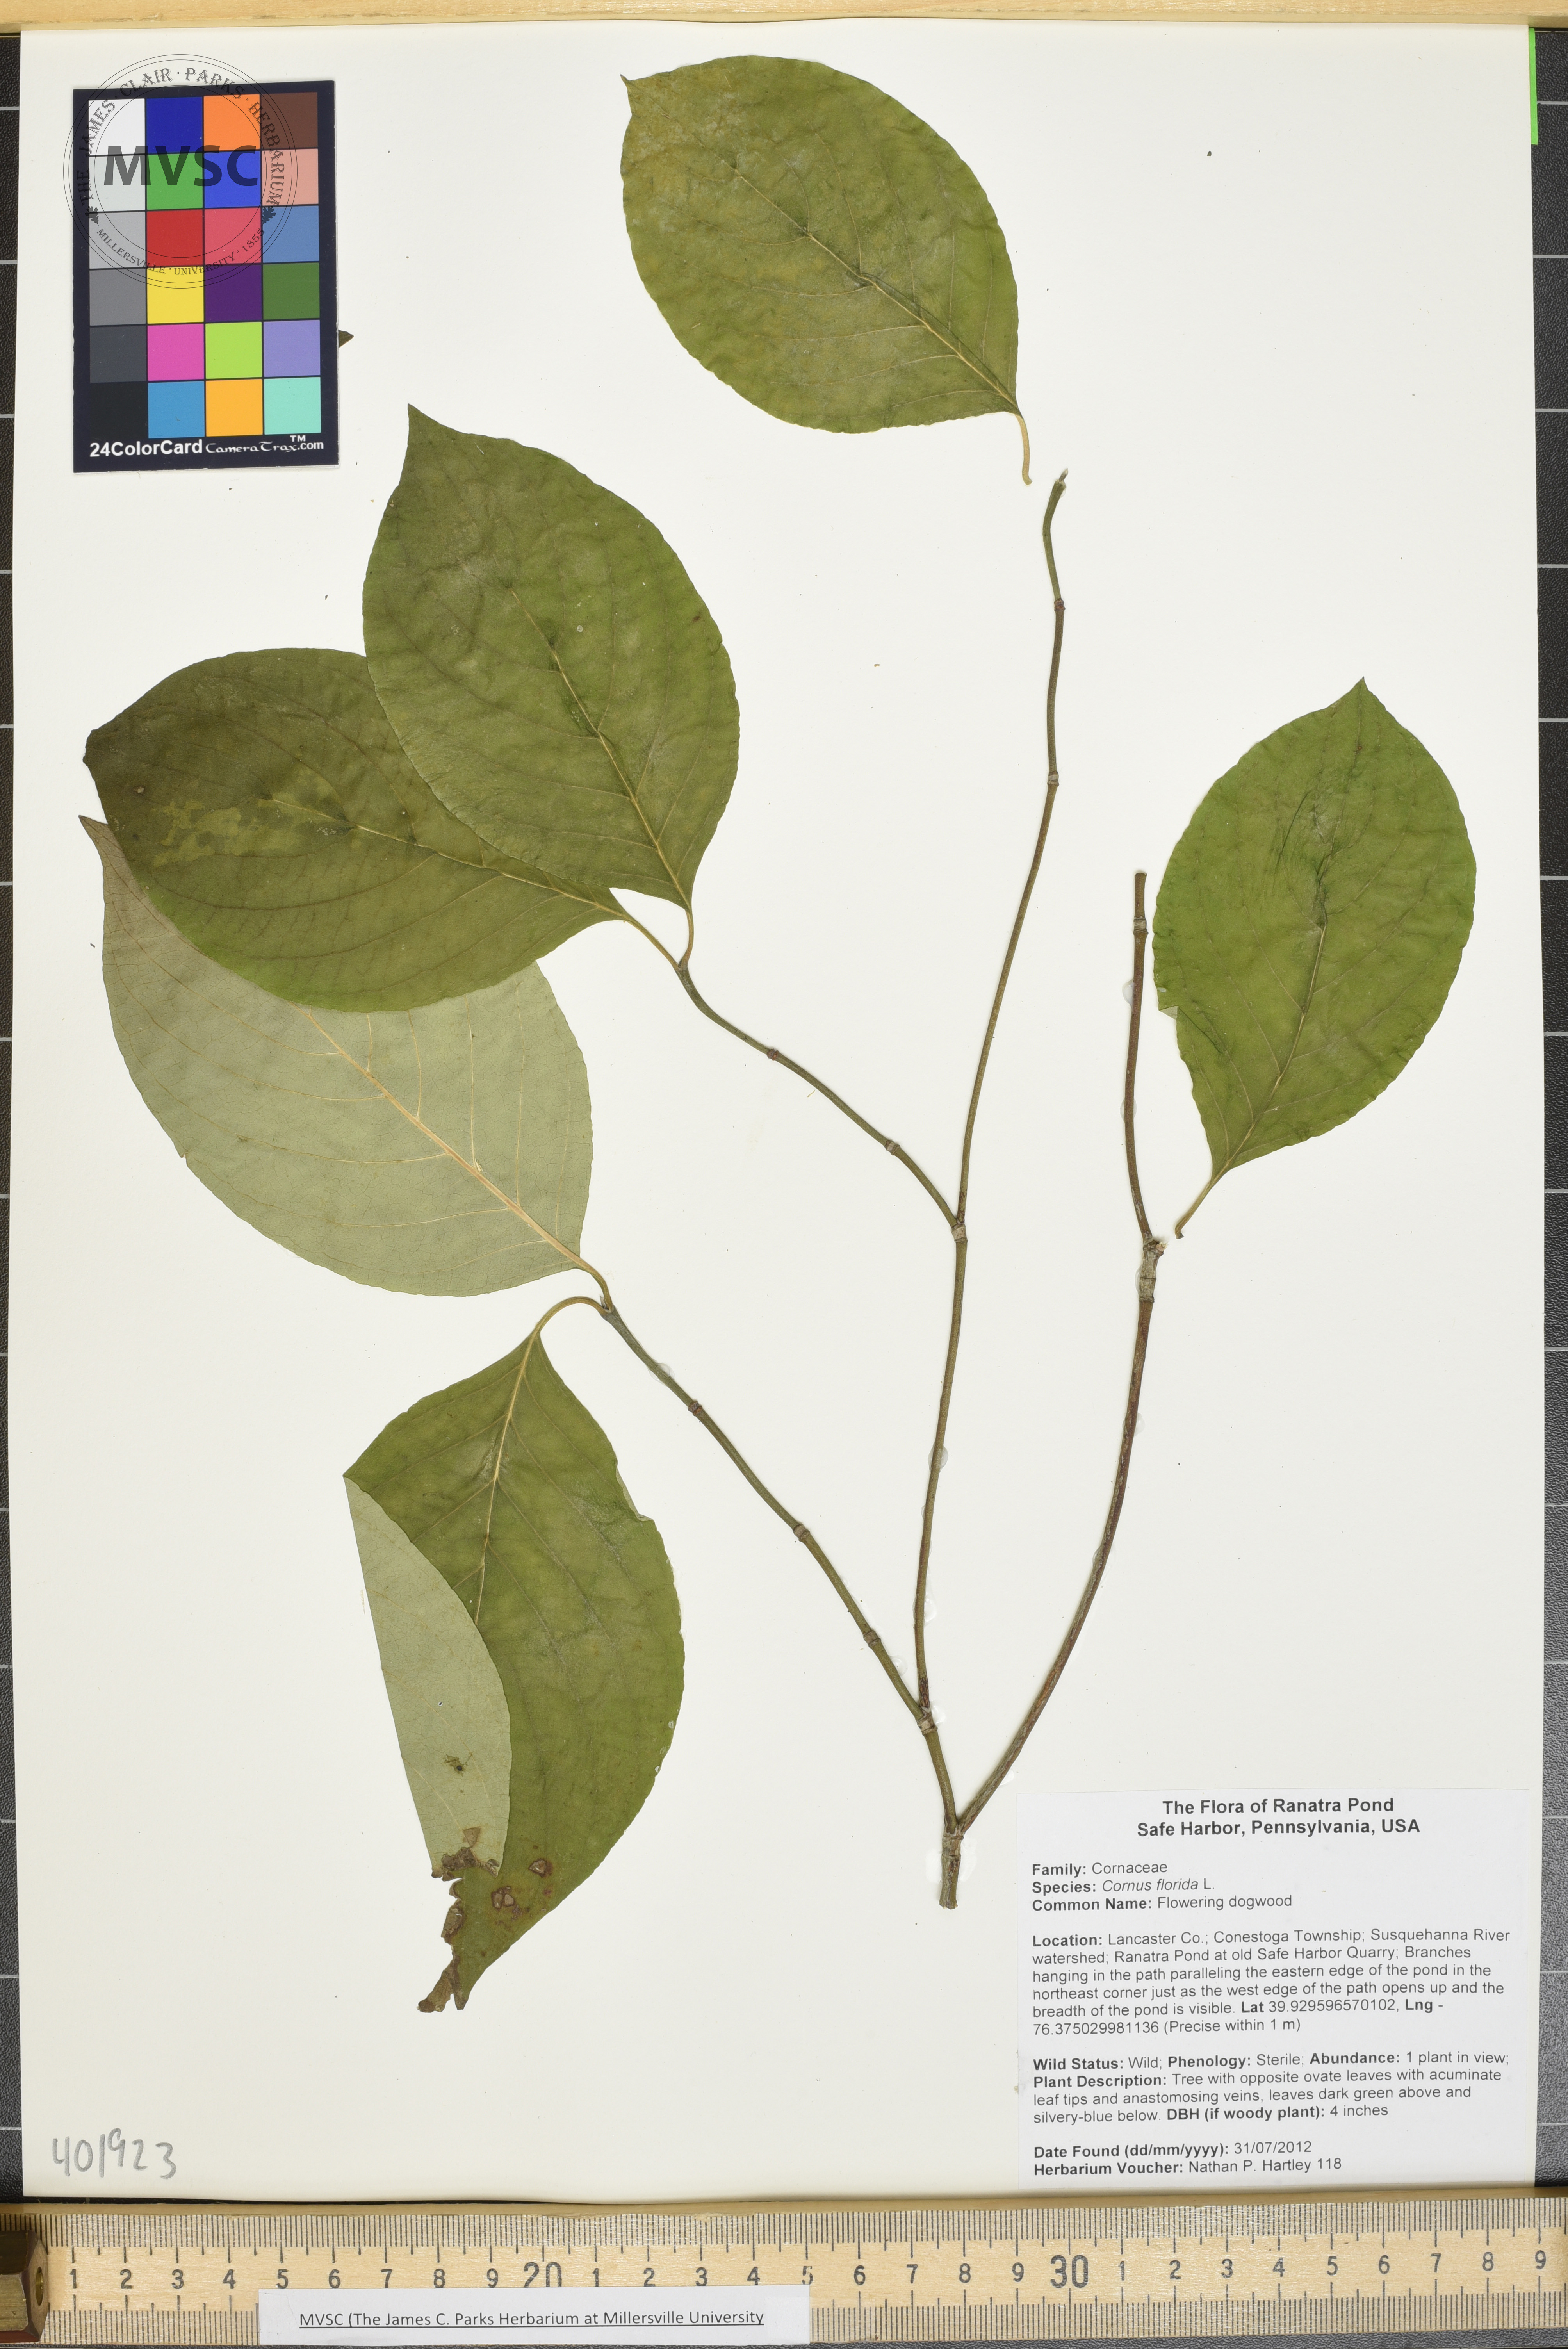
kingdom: Plantae
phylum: Tracheophyta
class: Magnoliopsida
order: Cornales
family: Cornaceae
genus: Cornus
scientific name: Cornus florida
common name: Flowering dogwood
